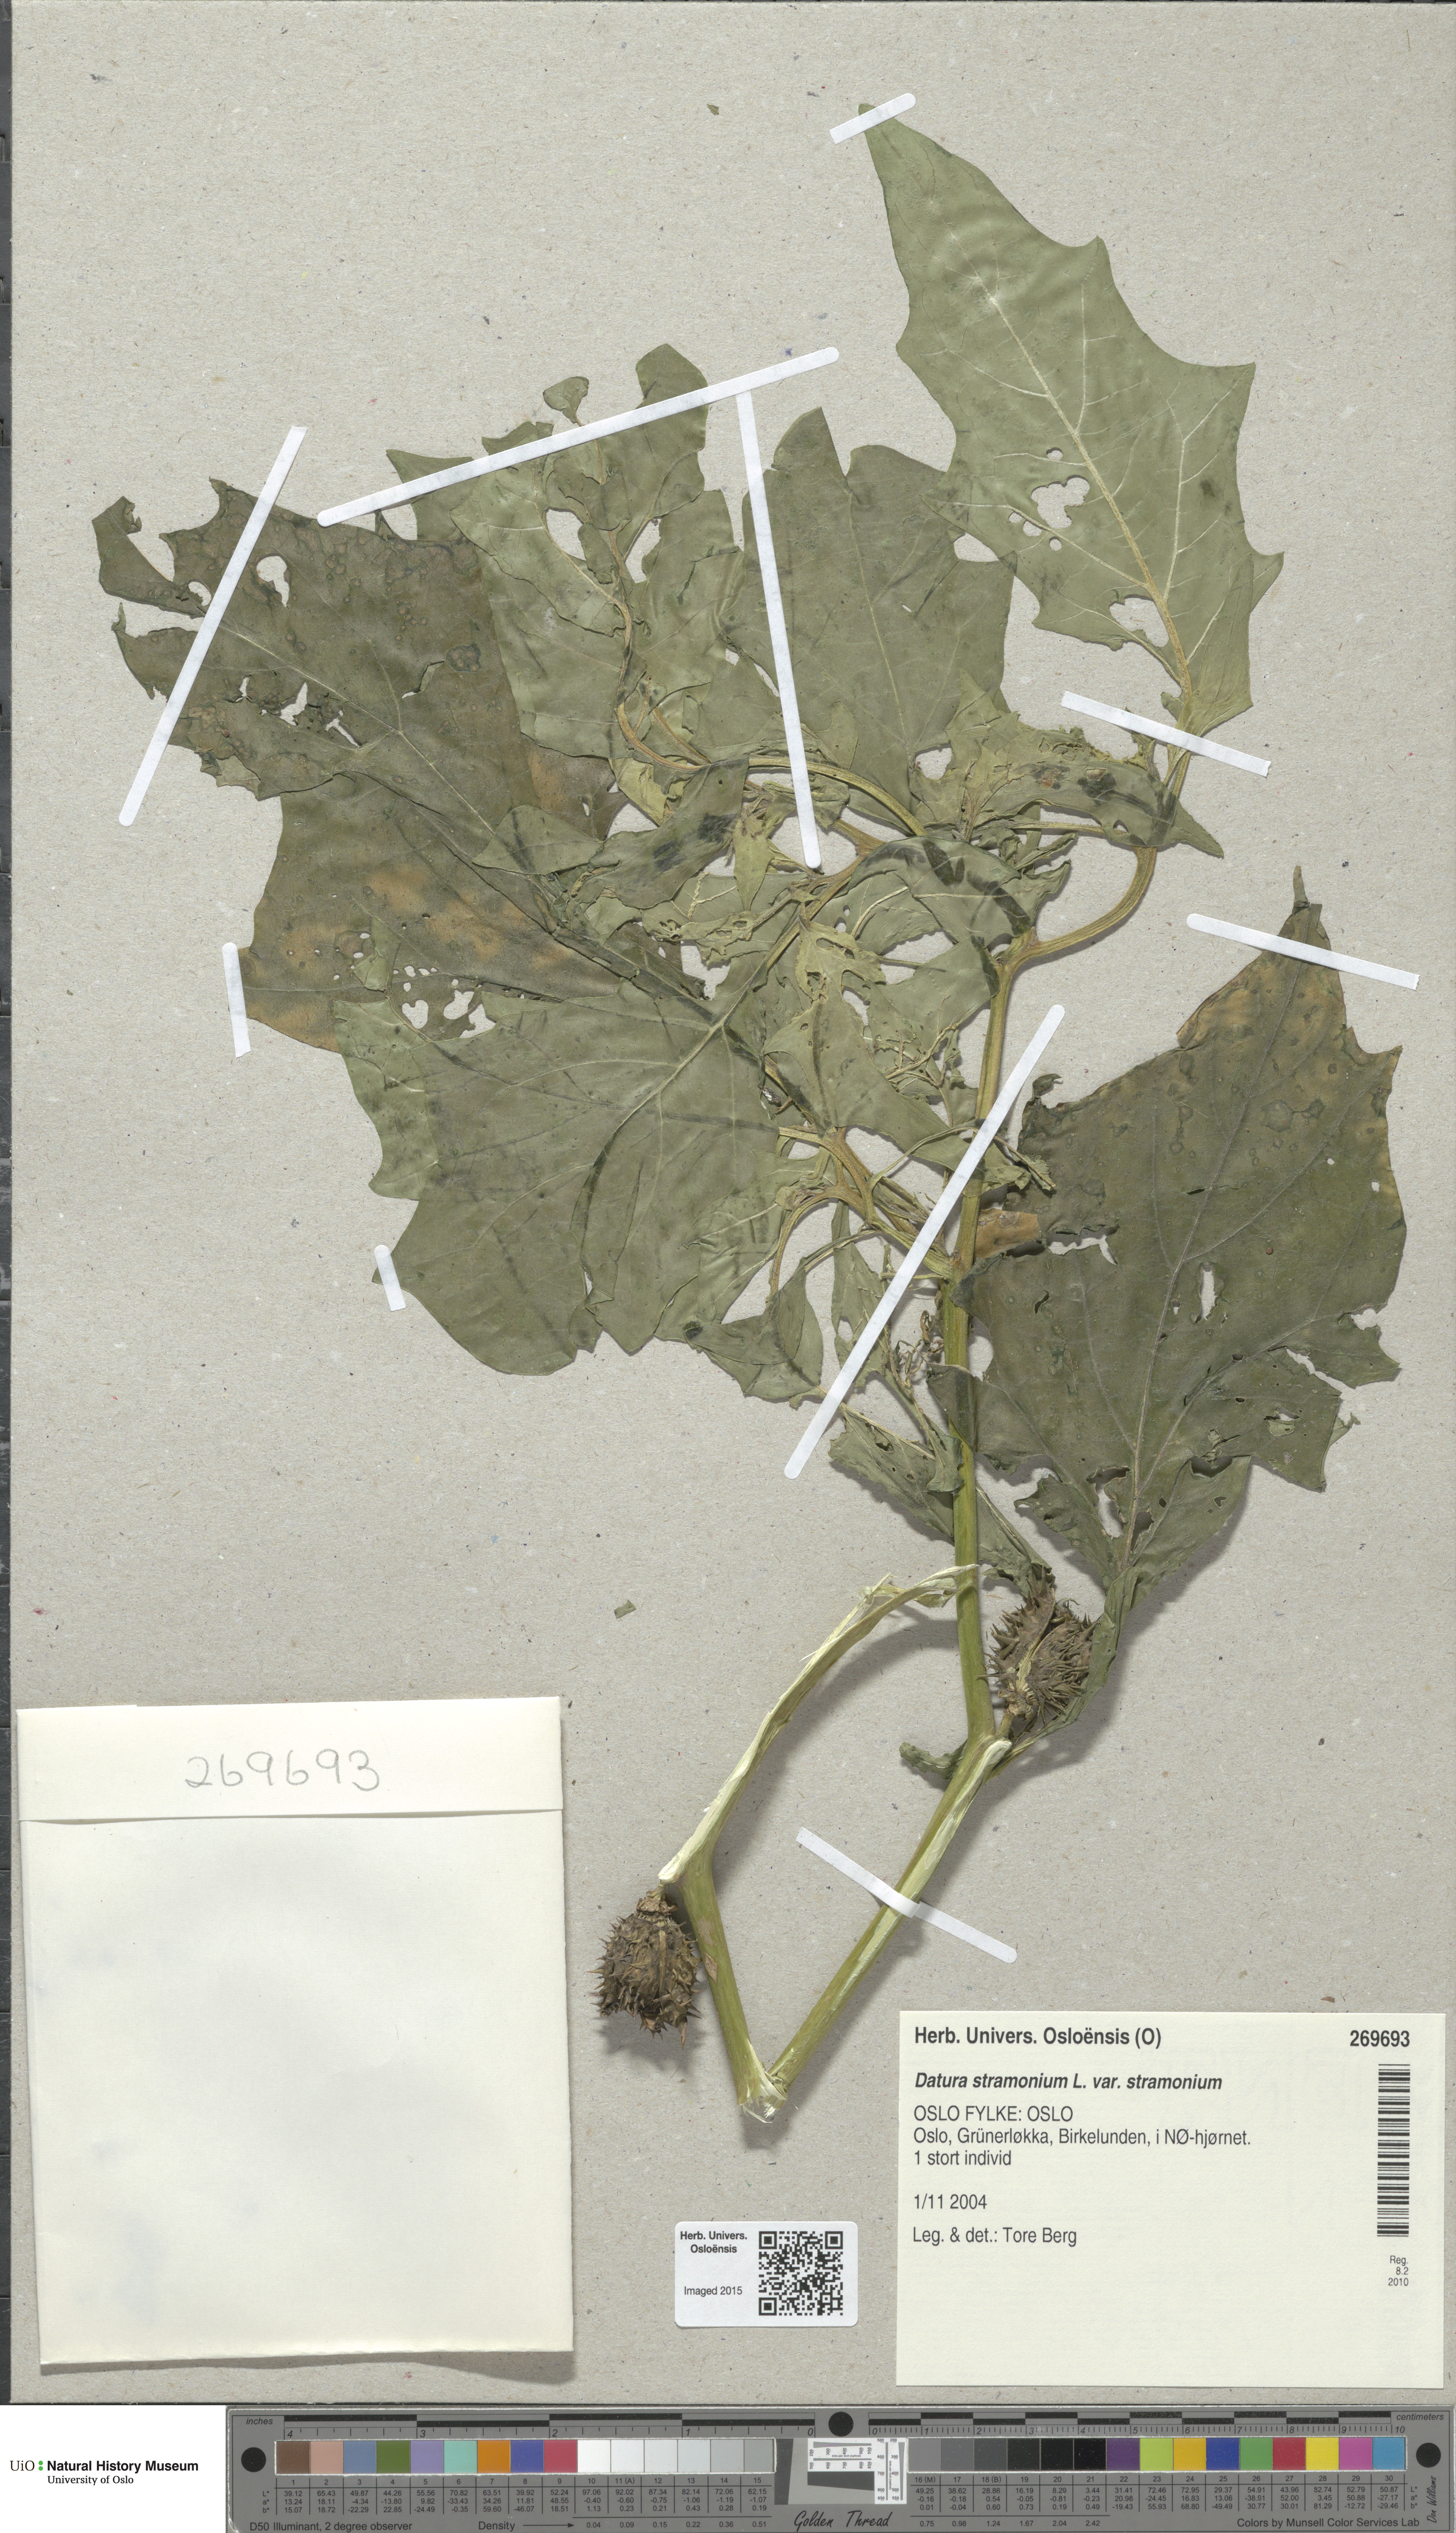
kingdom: Plantae
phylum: Tracheophyta
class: Magnoliopsida
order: Solanales
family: Solanaceae
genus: Datura
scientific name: Datura stramonium
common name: Thorn-apple
